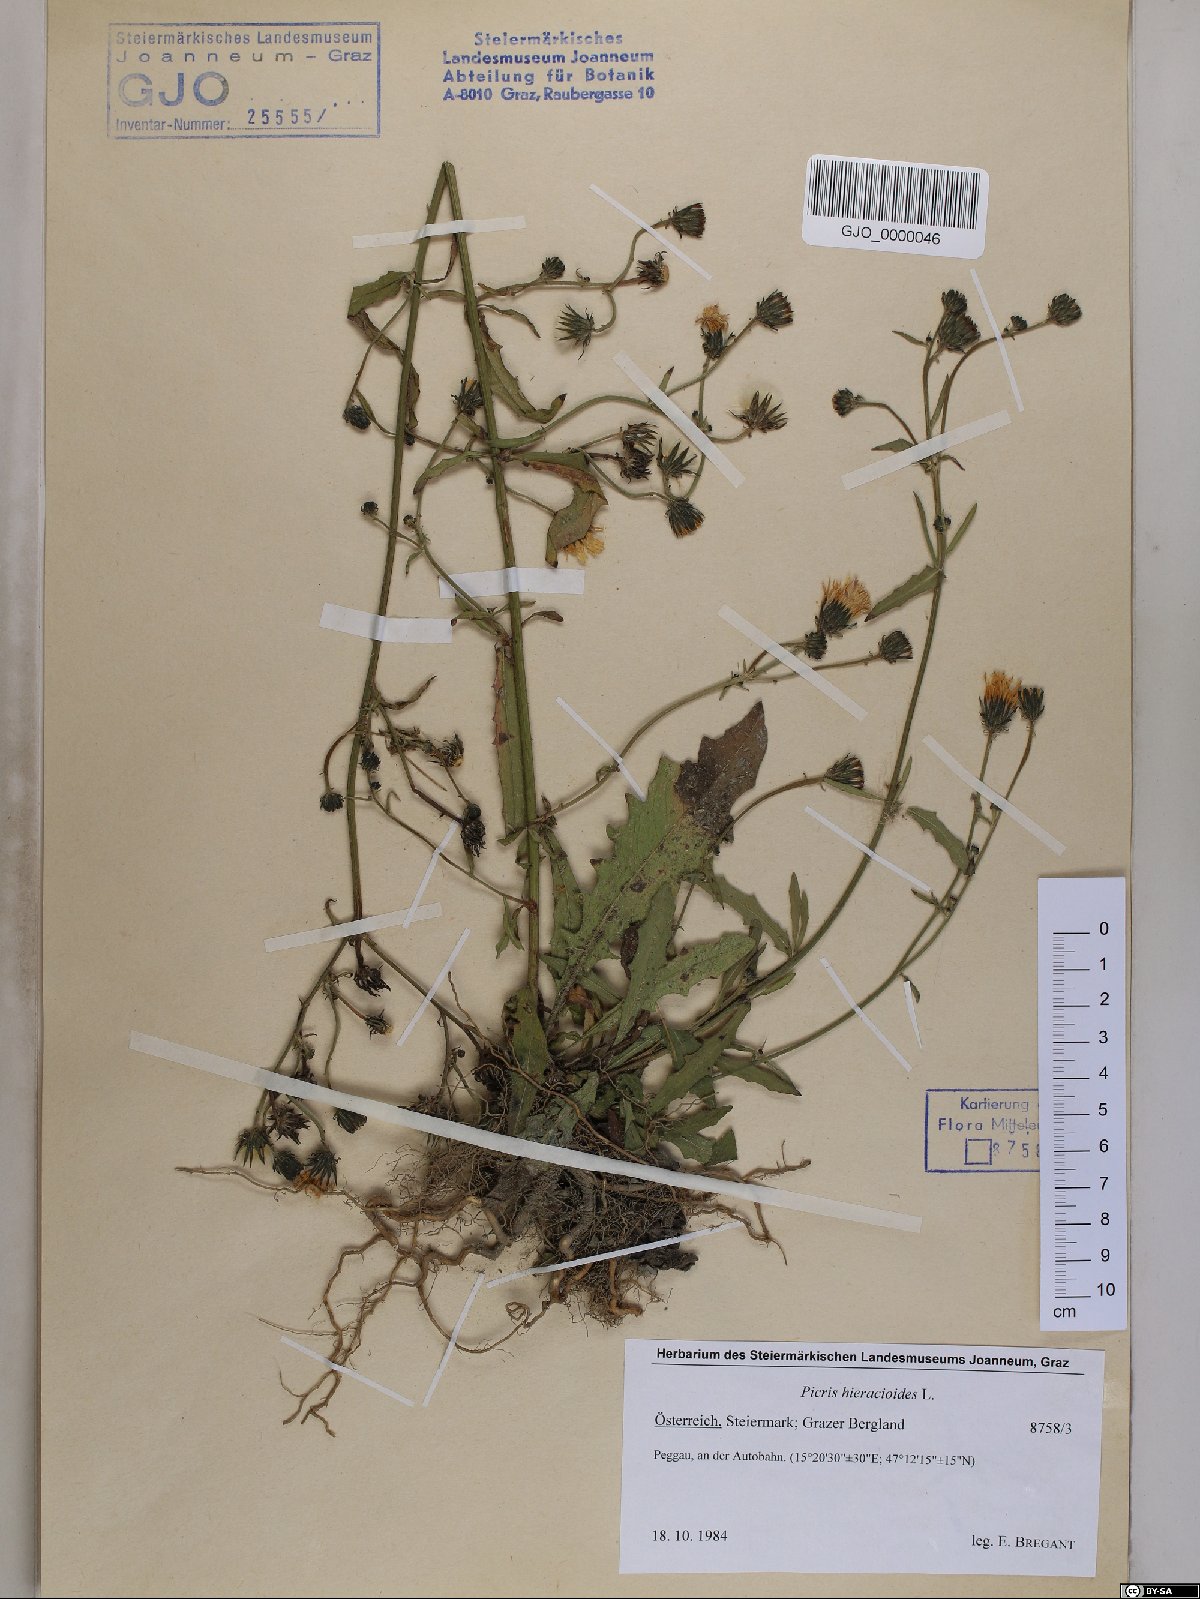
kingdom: Plantae
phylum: Tracheophyta
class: Magnoliopsida
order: Asterales
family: Asteraceae
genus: Picris
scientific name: Picris hieracioides
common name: Hawkweed oxtongue
